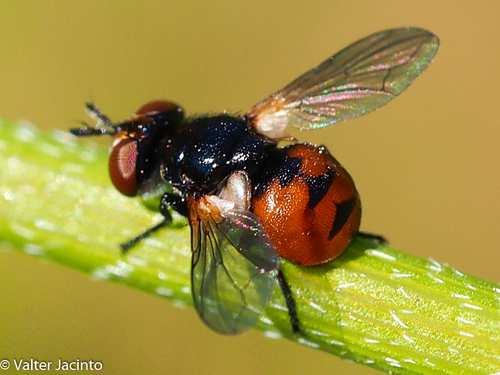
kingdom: Animalia
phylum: Arthropoda
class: Insecta
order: Diptera
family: Tachinidae
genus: Gymnosoma
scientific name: Gymnosoma nitens
